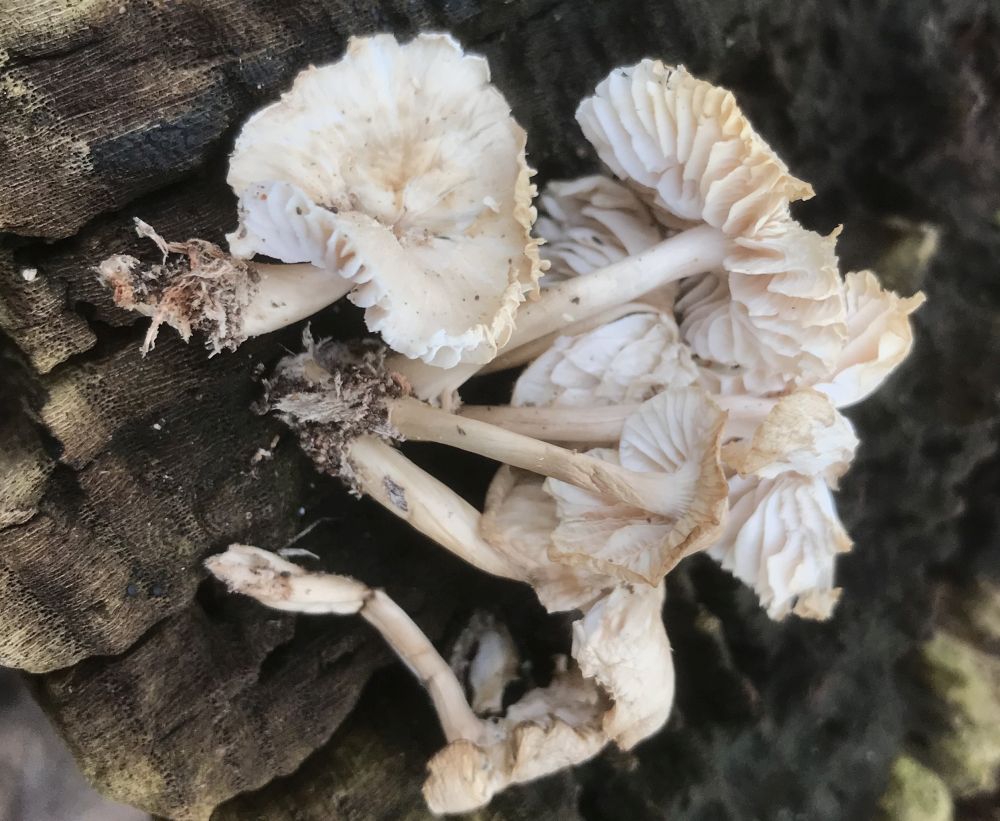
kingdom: Fungi
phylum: Basidiomycota
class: Agaricomycetes
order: Agaricales
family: Mycenaceae
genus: Mycena
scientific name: Mycena galericulata
